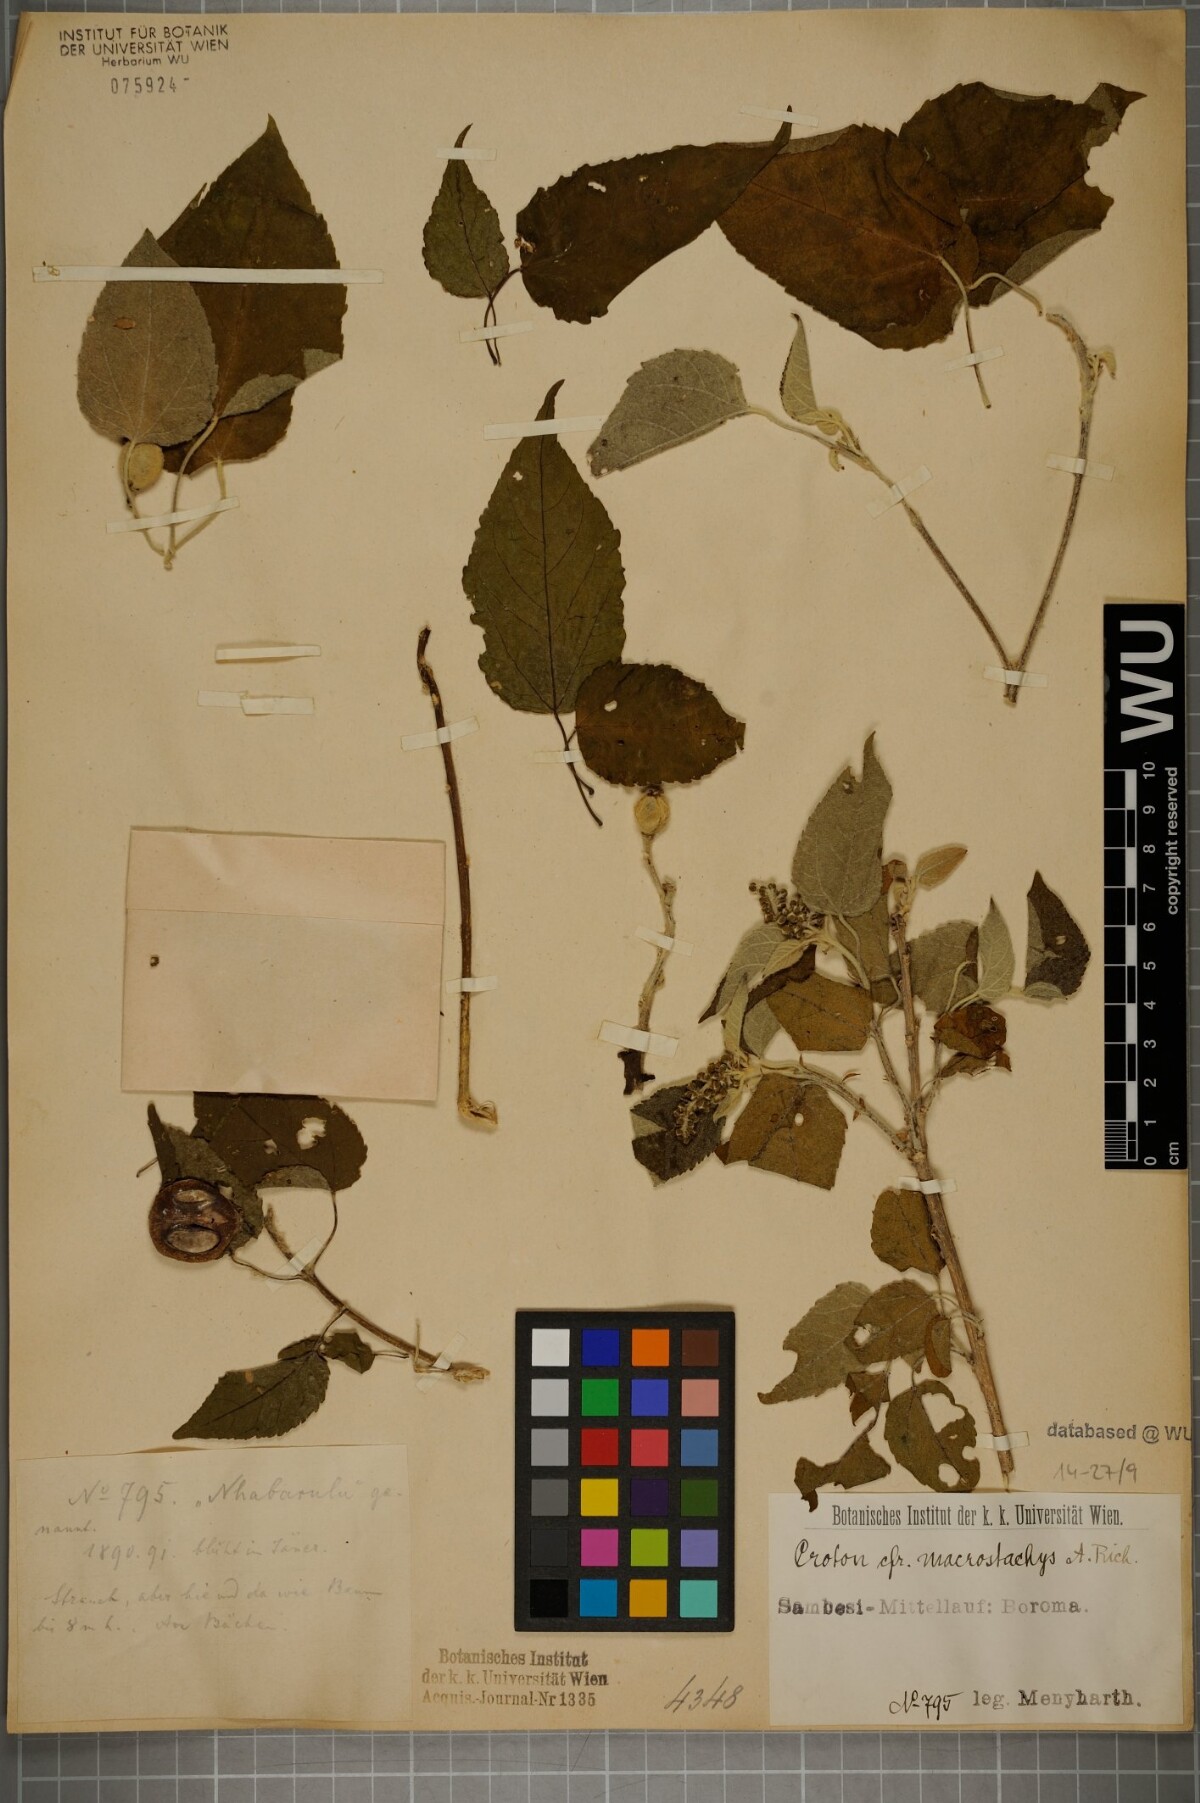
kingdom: Plantae
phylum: Tracheophyta
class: Magnoliopsida
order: Malpighiales
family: Euphorbiaceae
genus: Croton
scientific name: Croton macrostachys
